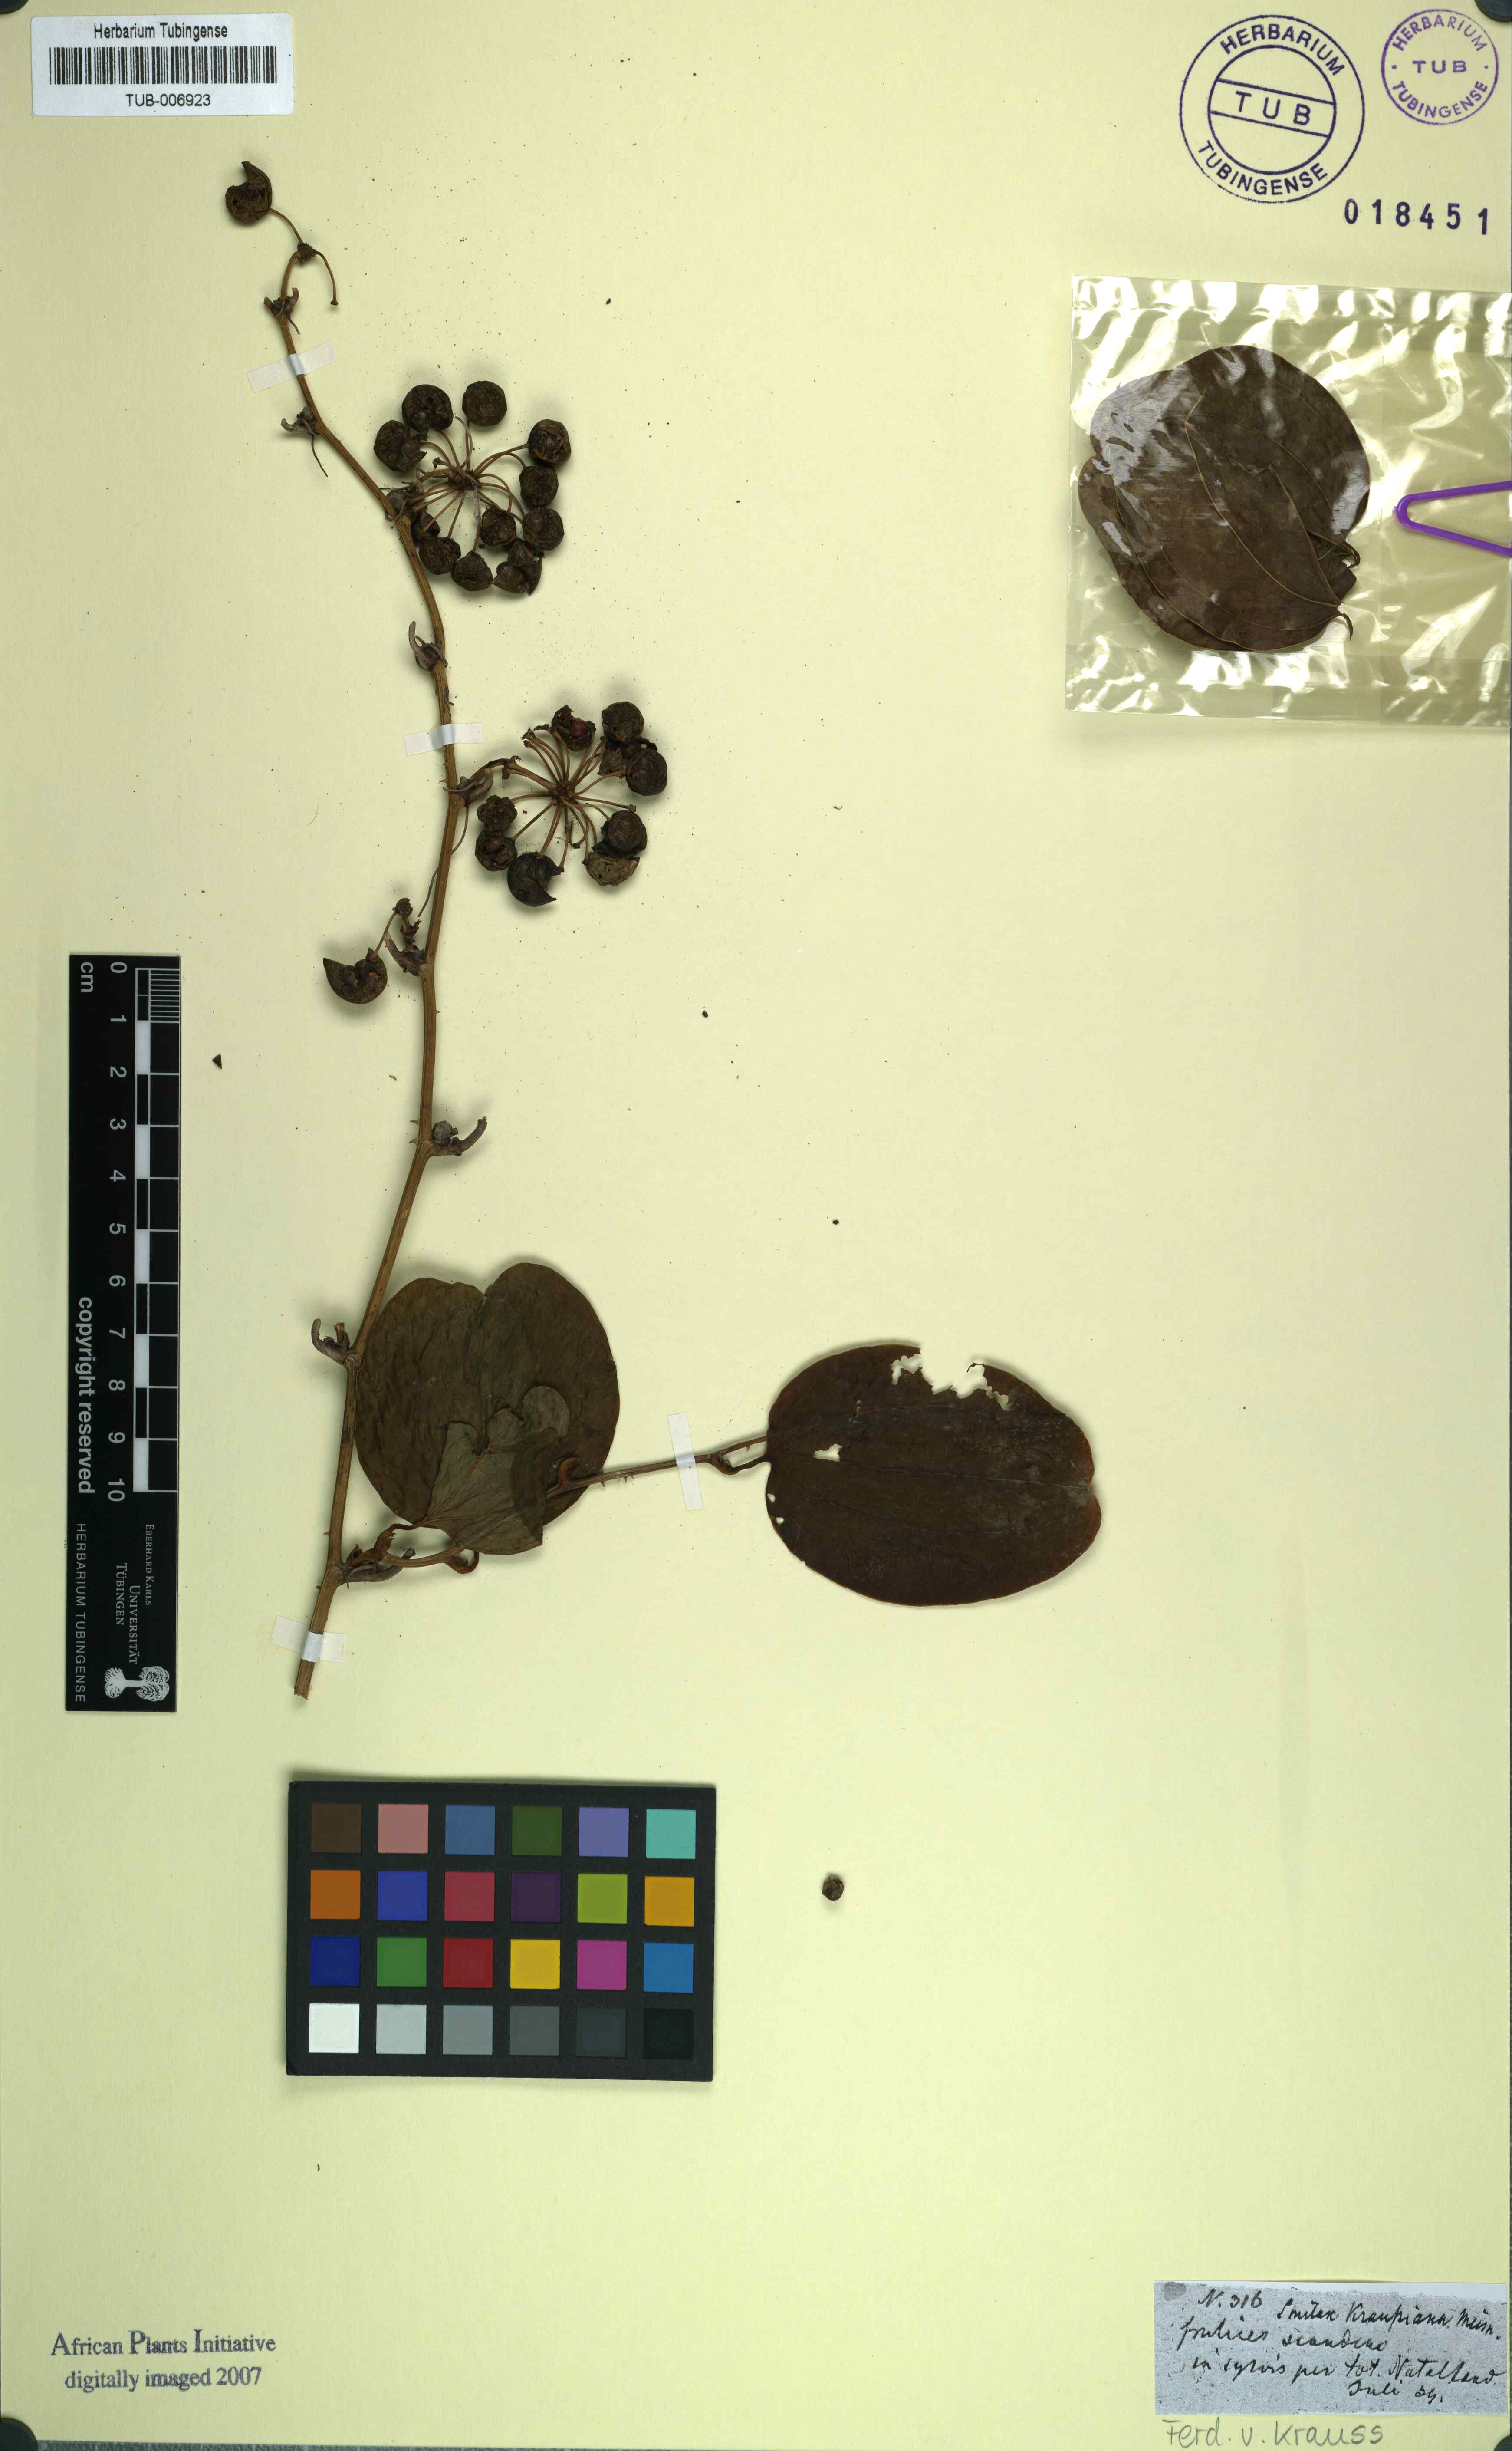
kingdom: Plantae
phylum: Tracheophyta
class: Liliopsida
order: Liliales
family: Smilacaceae
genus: Smilax
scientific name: Smilax anceps
